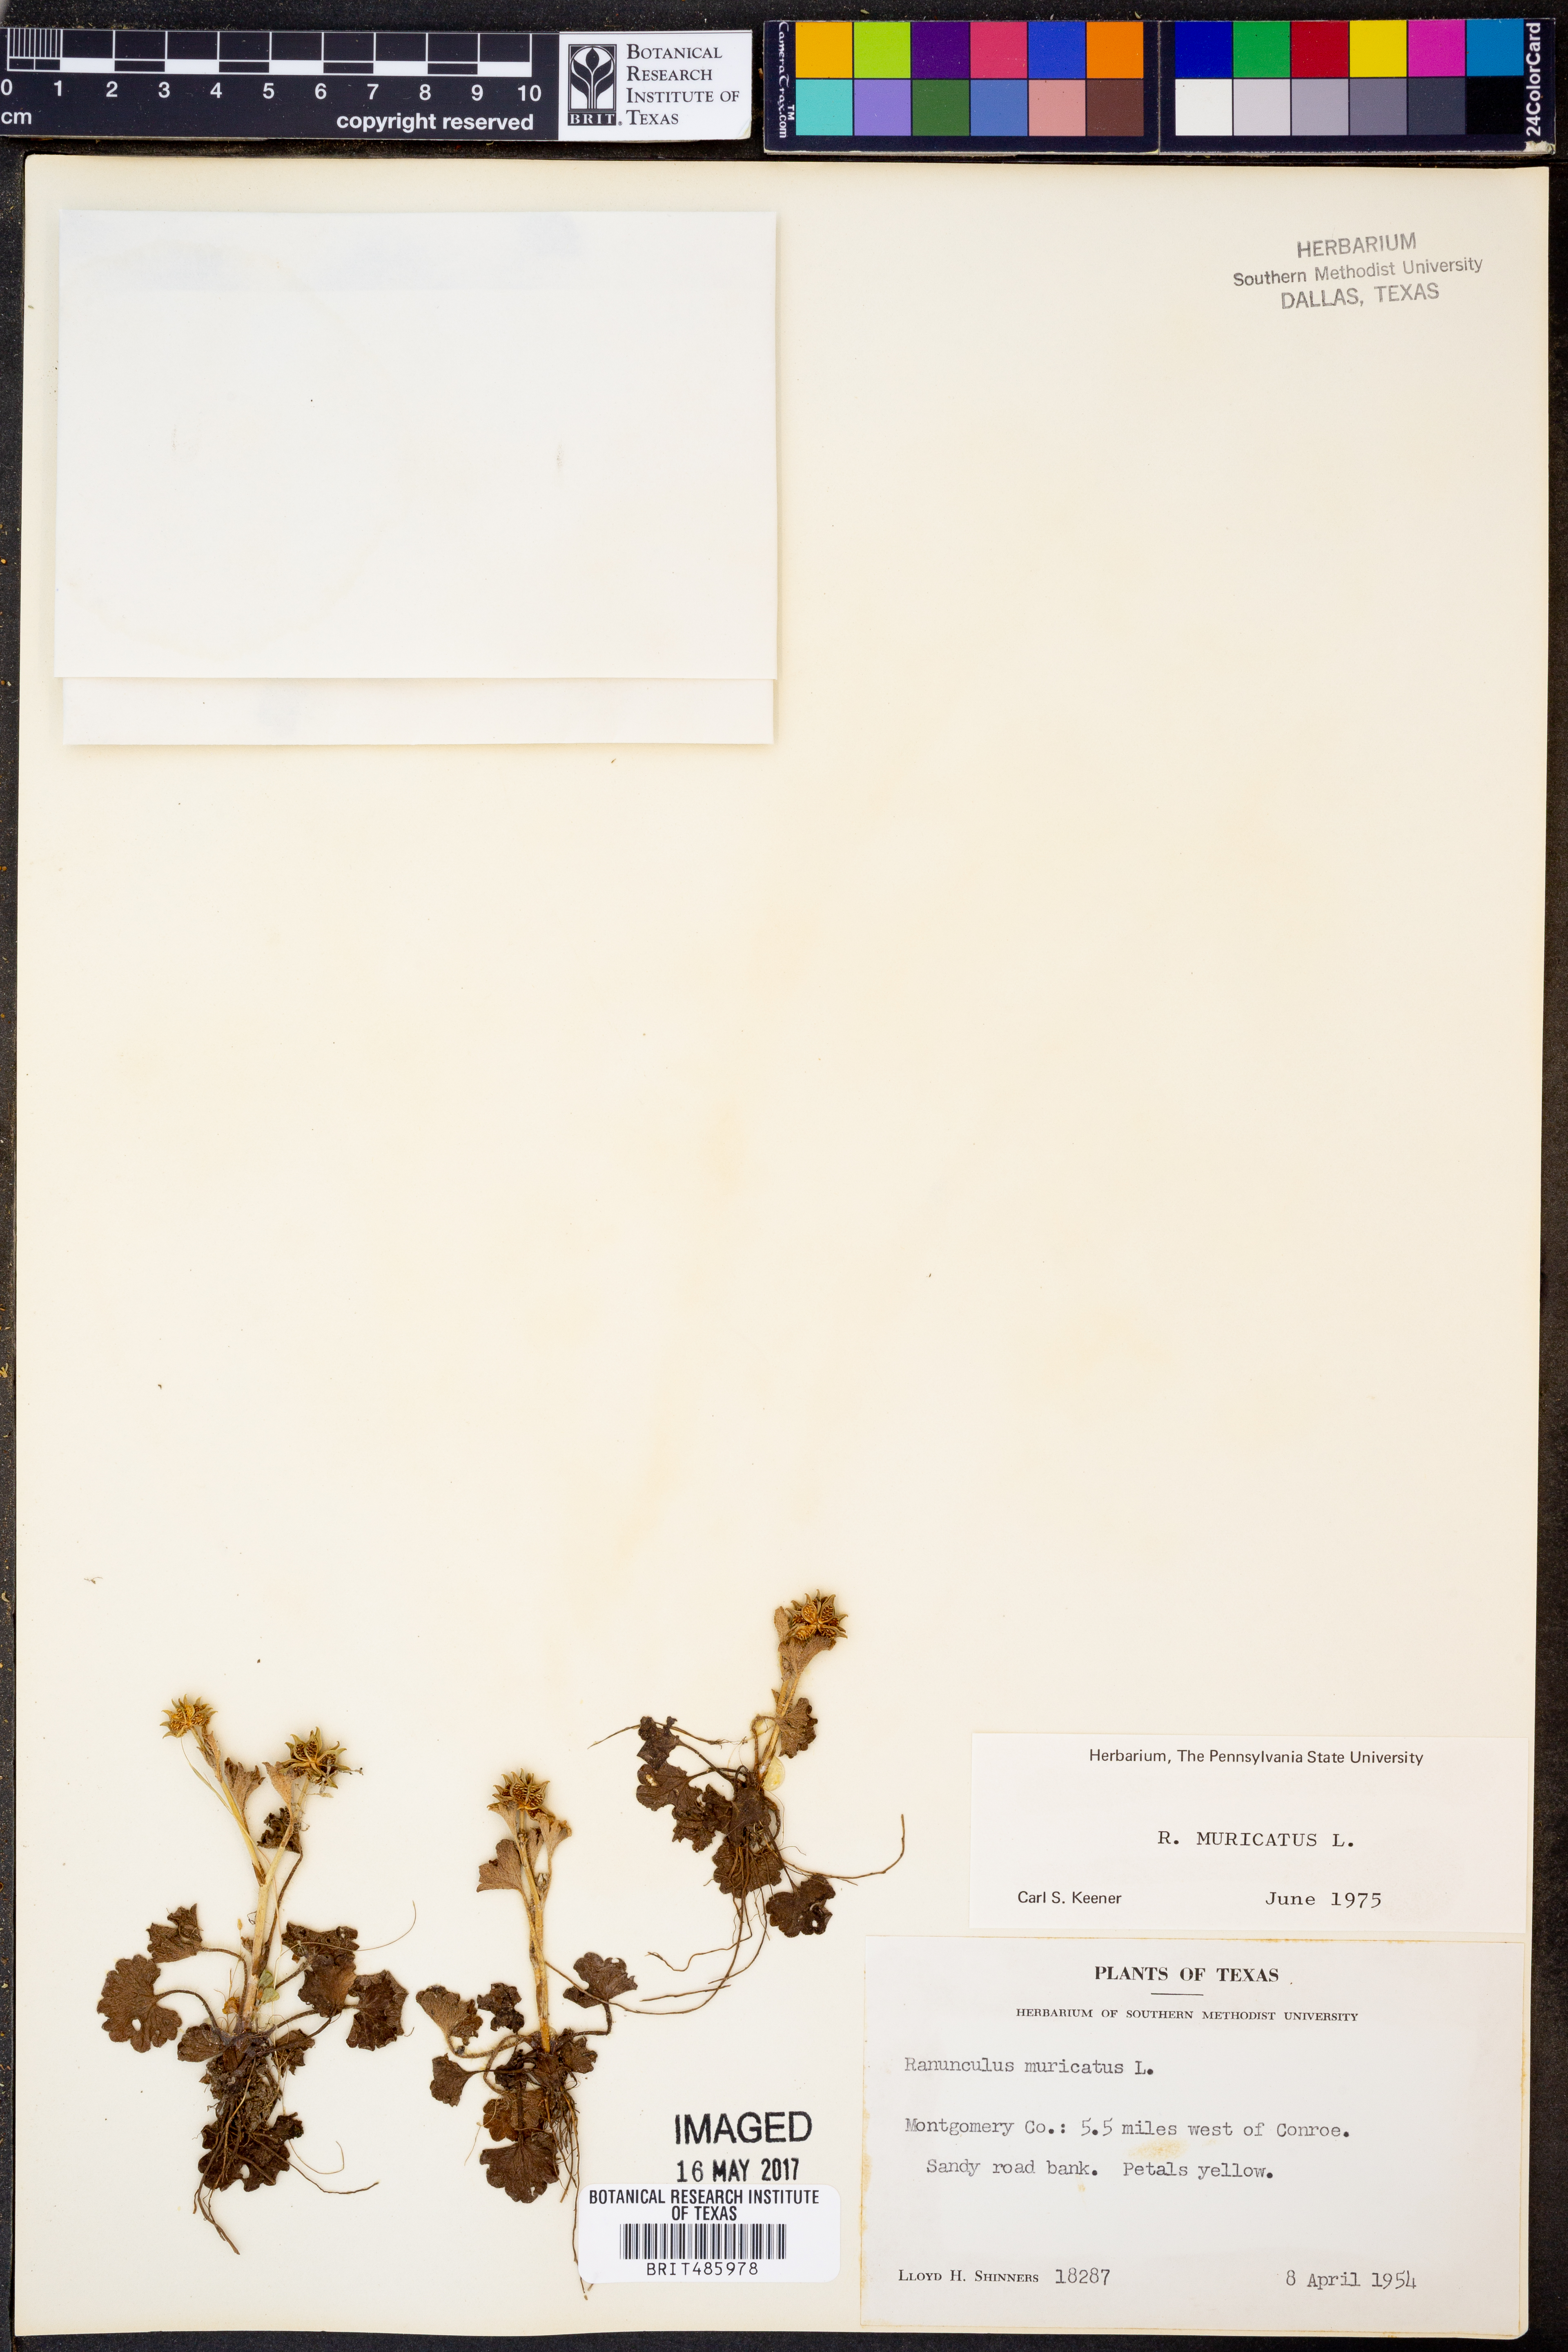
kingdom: Plantae
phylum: Tracheophyta
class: Magnoliopsida
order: Ranunculales
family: Ranunculaceae
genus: Ranunculus
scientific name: Ranunculus muricatus
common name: Rough-fruited buttercup
